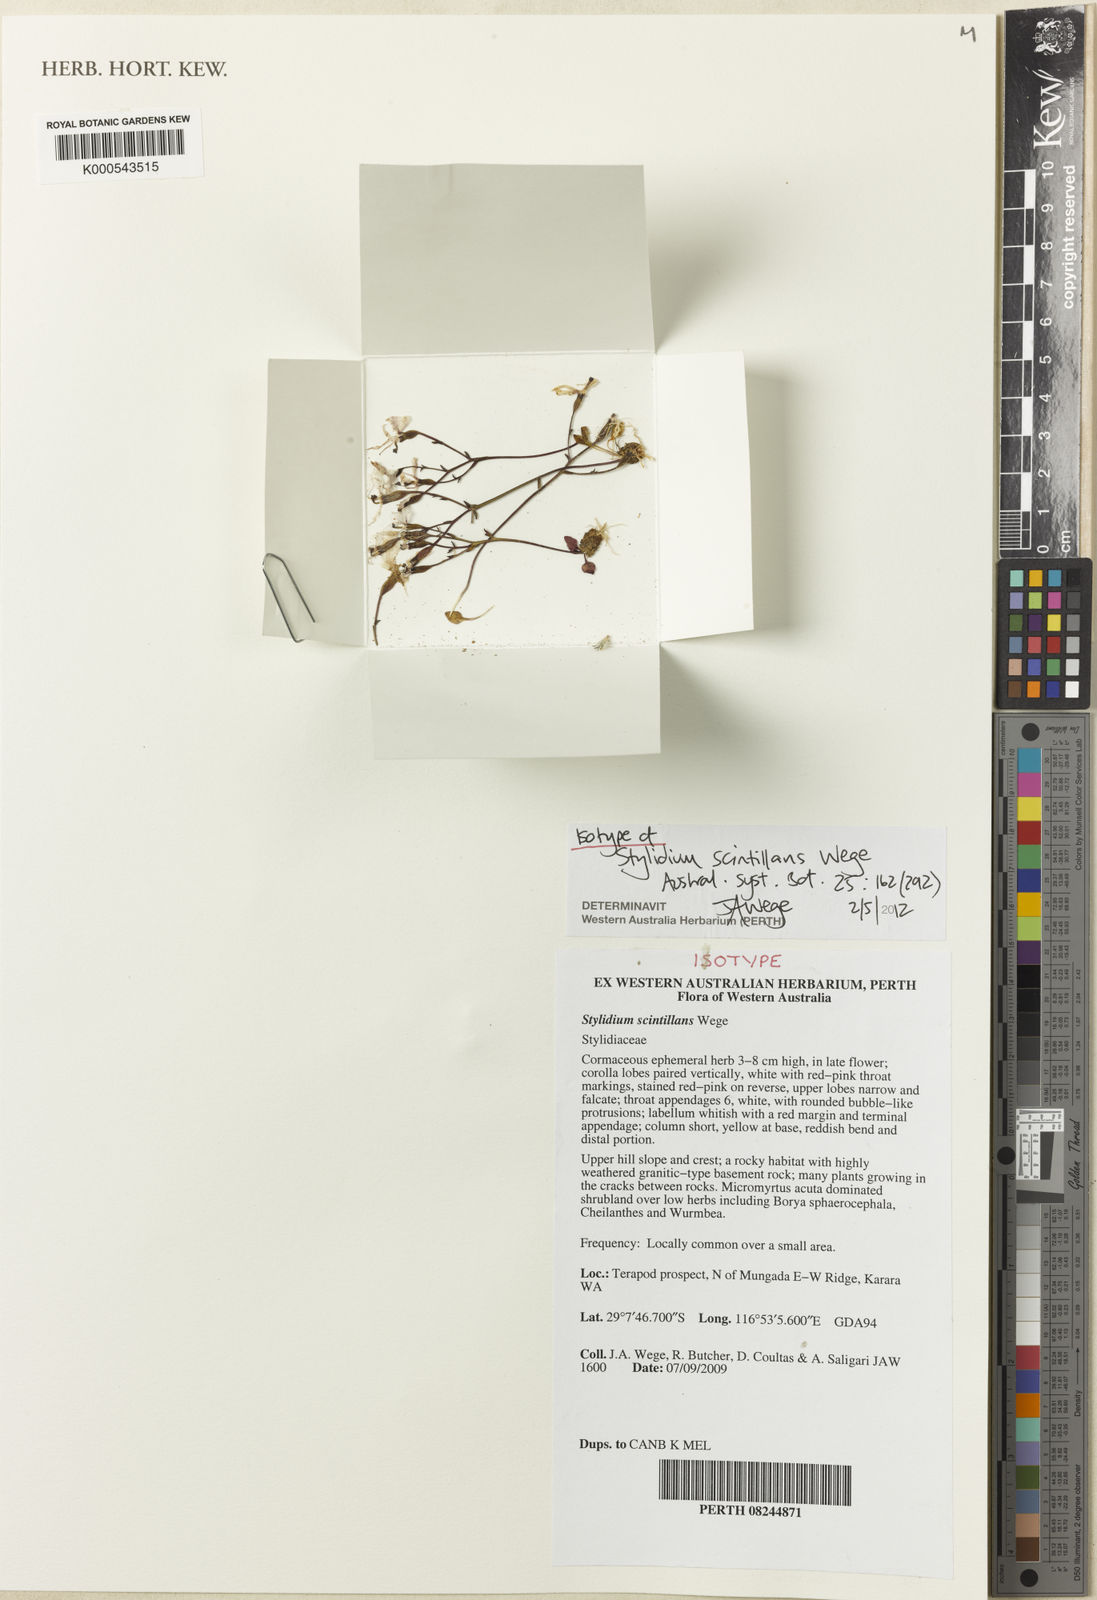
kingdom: Plantae
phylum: Tracheophyta
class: Magnoliopsida
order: Asterales
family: Stylidiaceae
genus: Stylidium
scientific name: Stylidium scintillans
